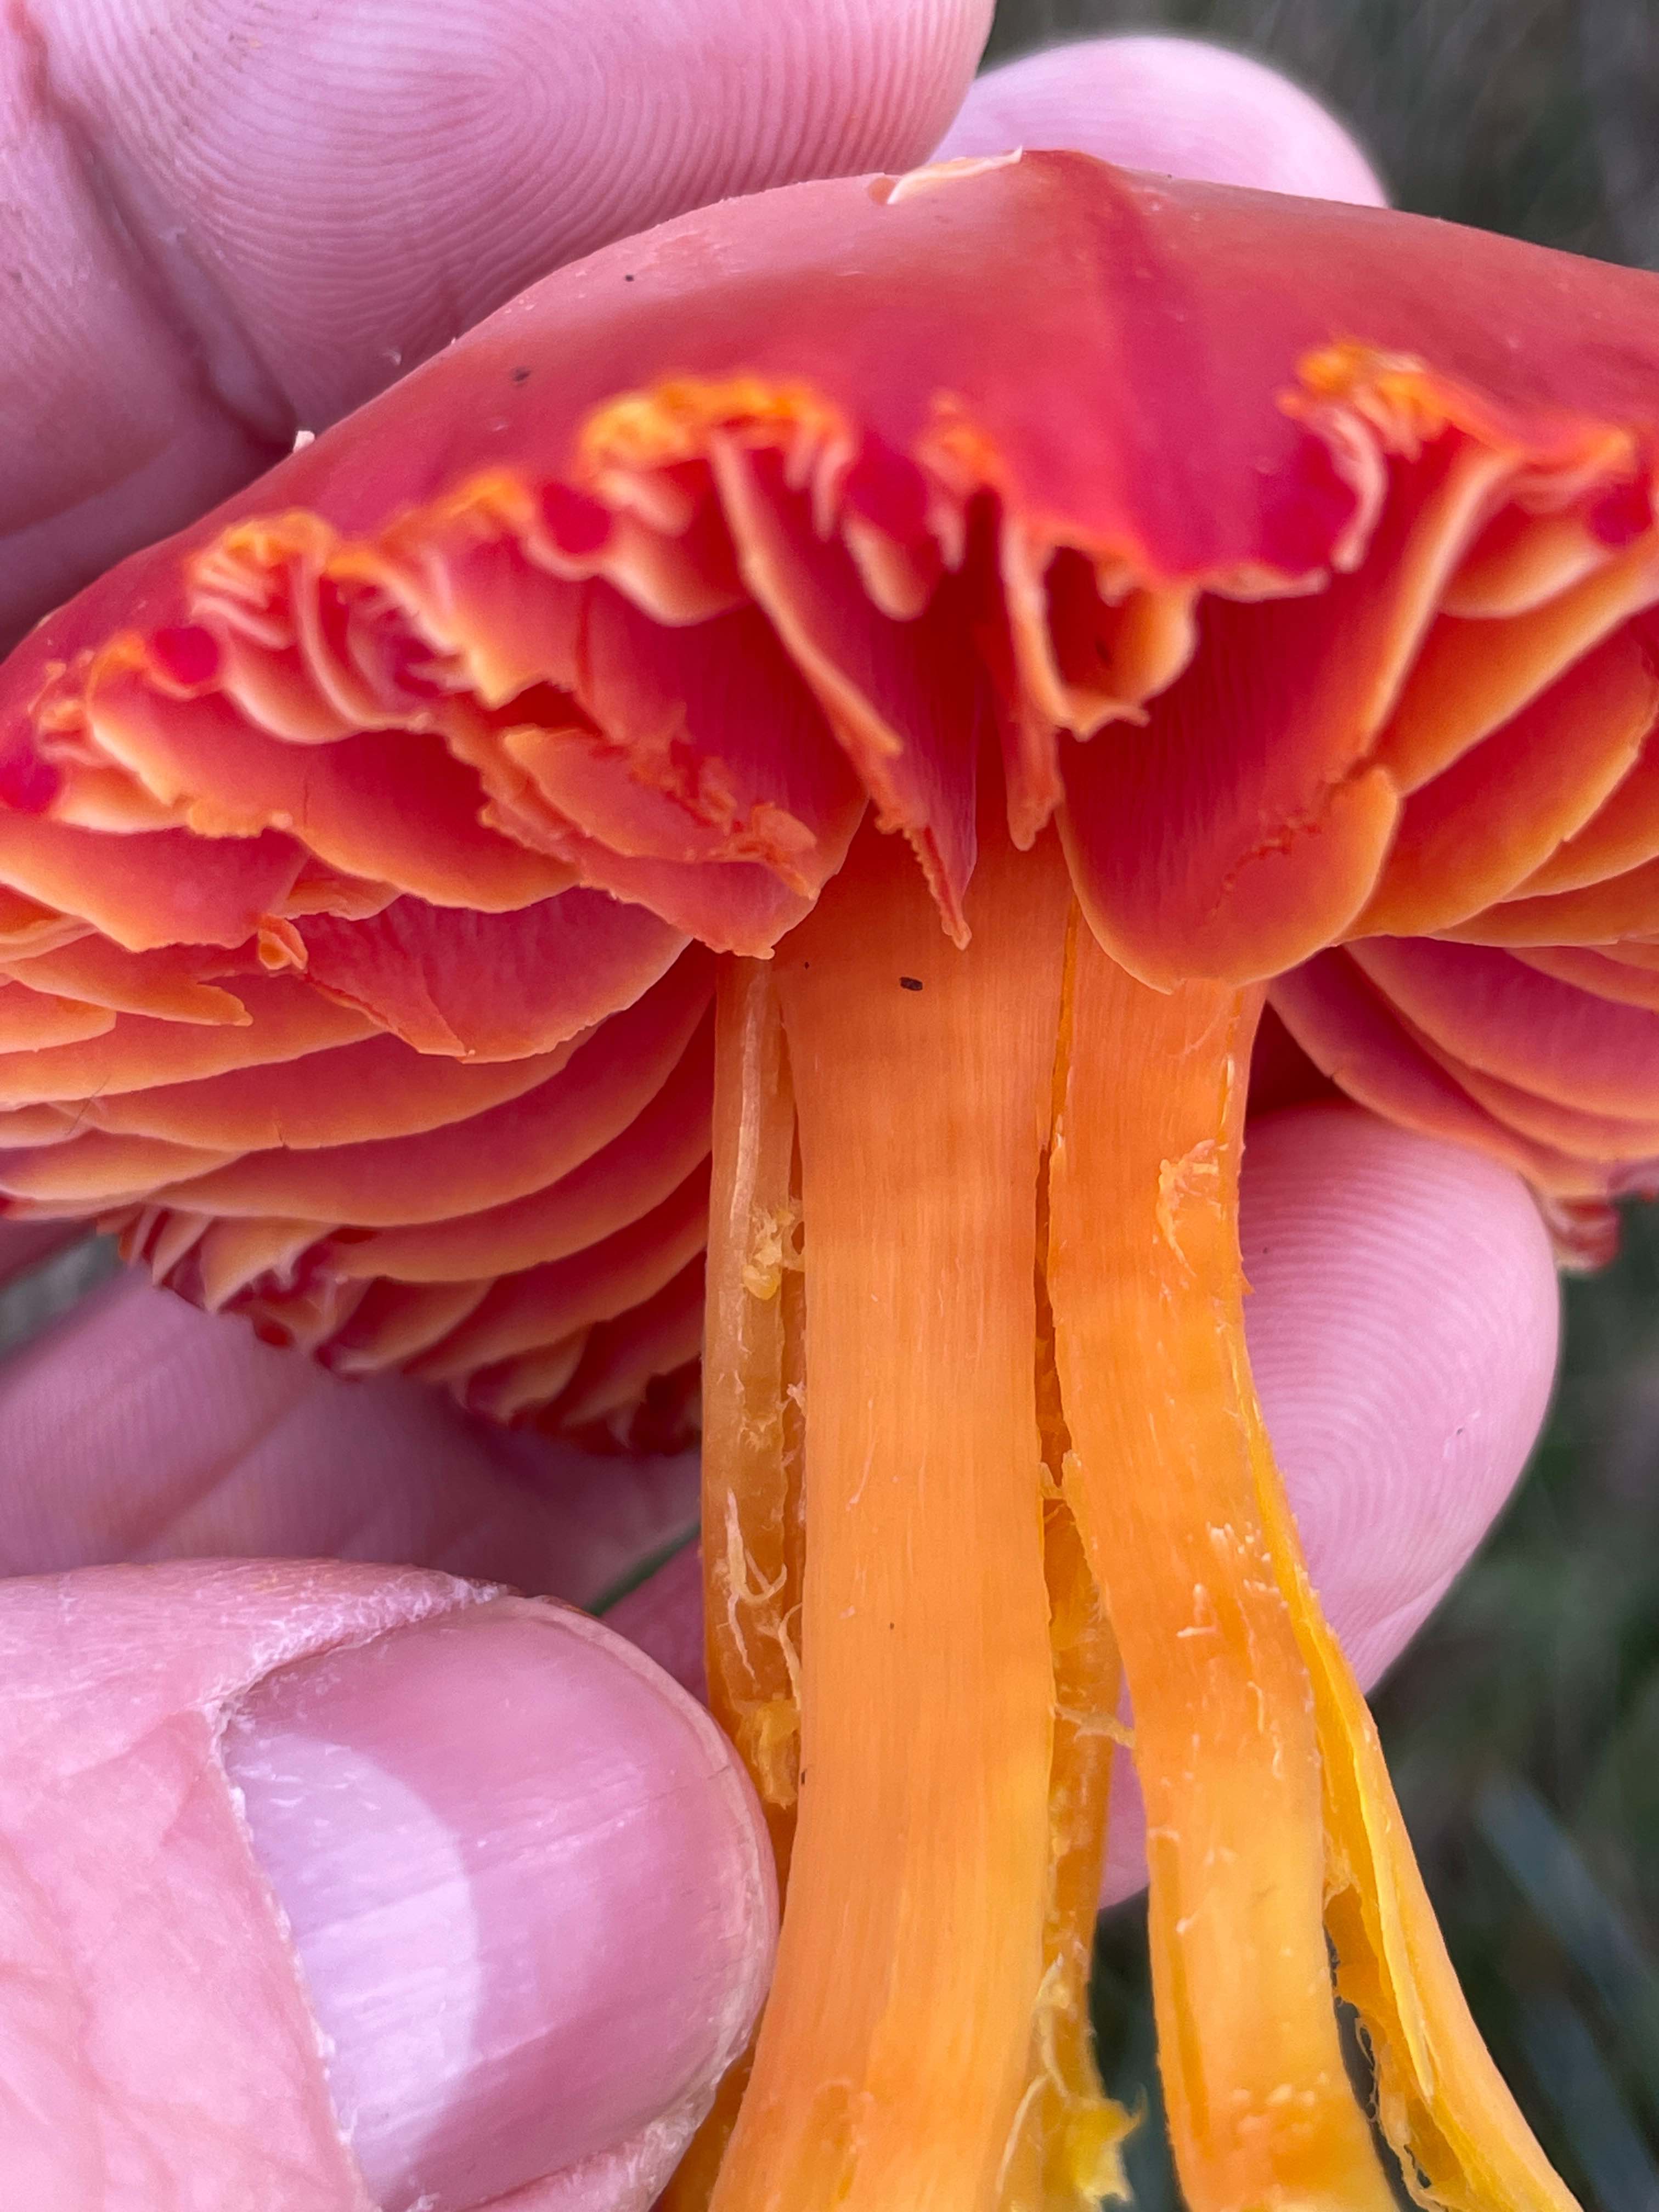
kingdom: Fungi
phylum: Basidiomycota
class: Agaricomycetes
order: Agaricales
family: Hygrophoraceae
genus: Hygrocybe
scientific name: Hygrocybe splendidissima
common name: knaldrød vokshat
